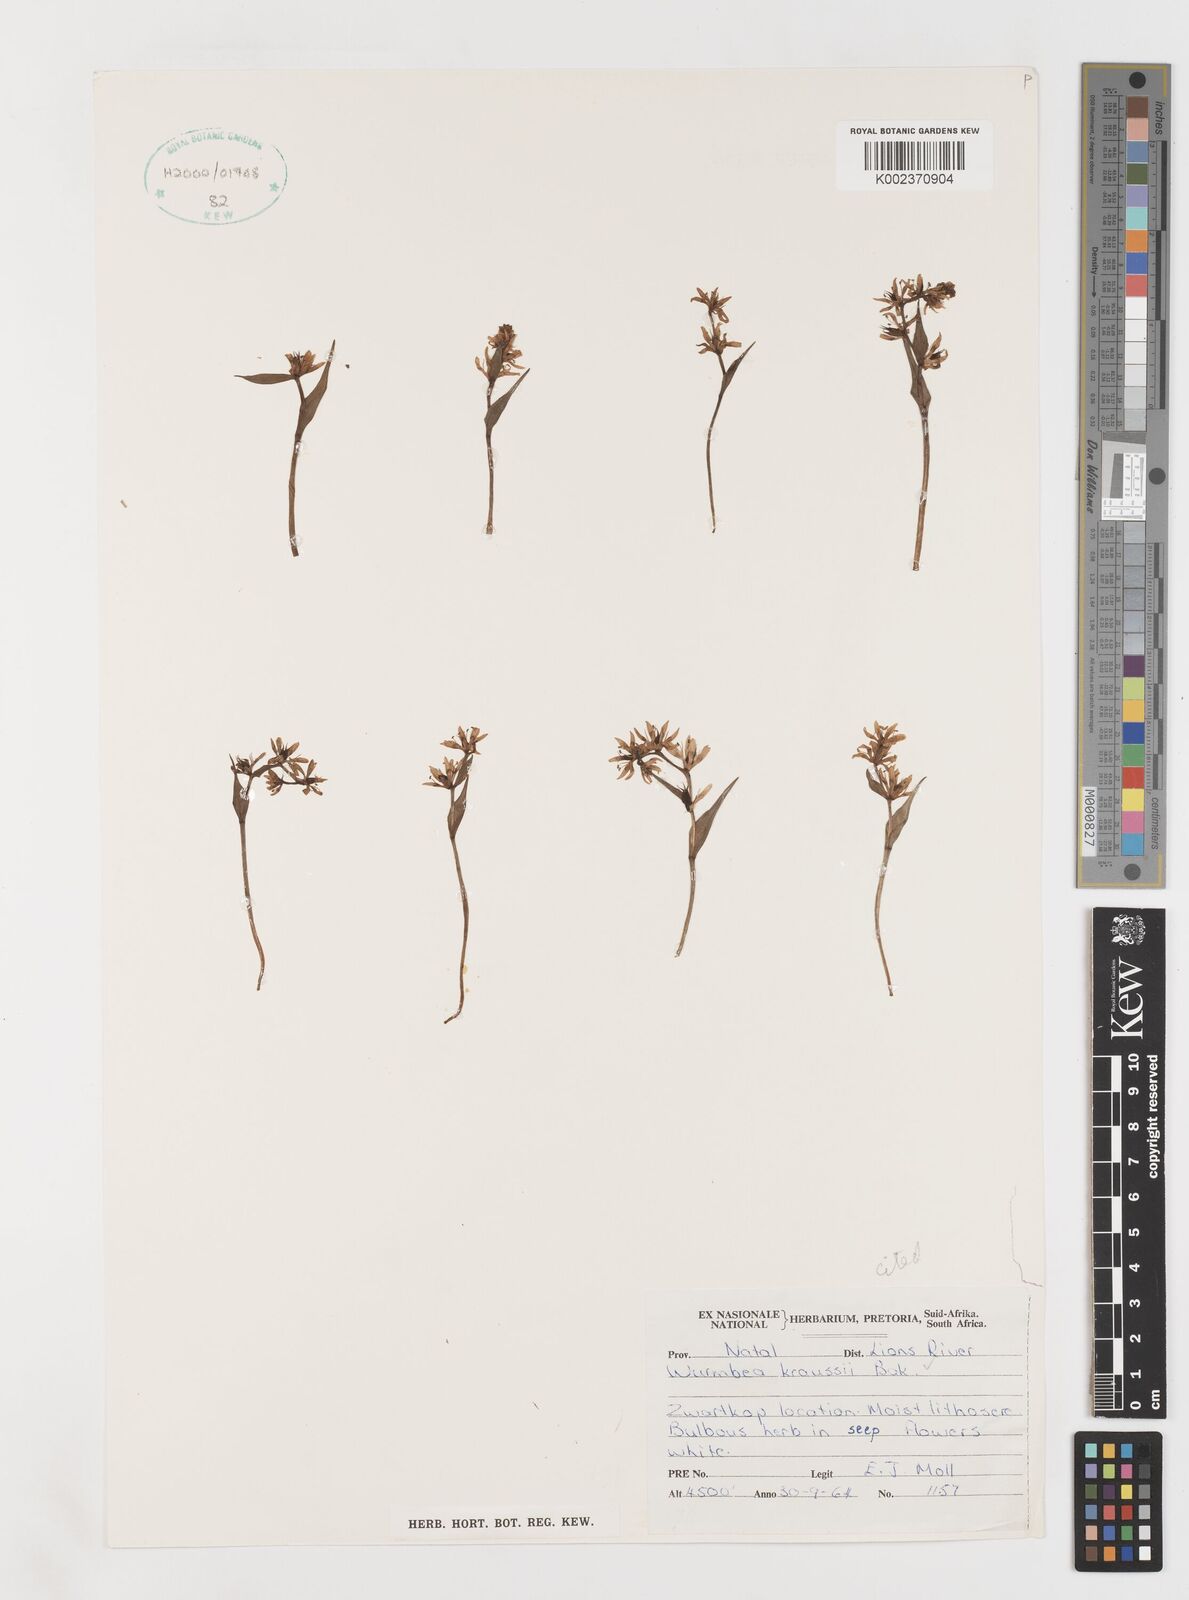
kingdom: Plantae
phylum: Tracheophyta
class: Liliopsida
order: Liliales
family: Colchicaceae
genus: Wurmbea
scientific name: Wurmbea kraussii
